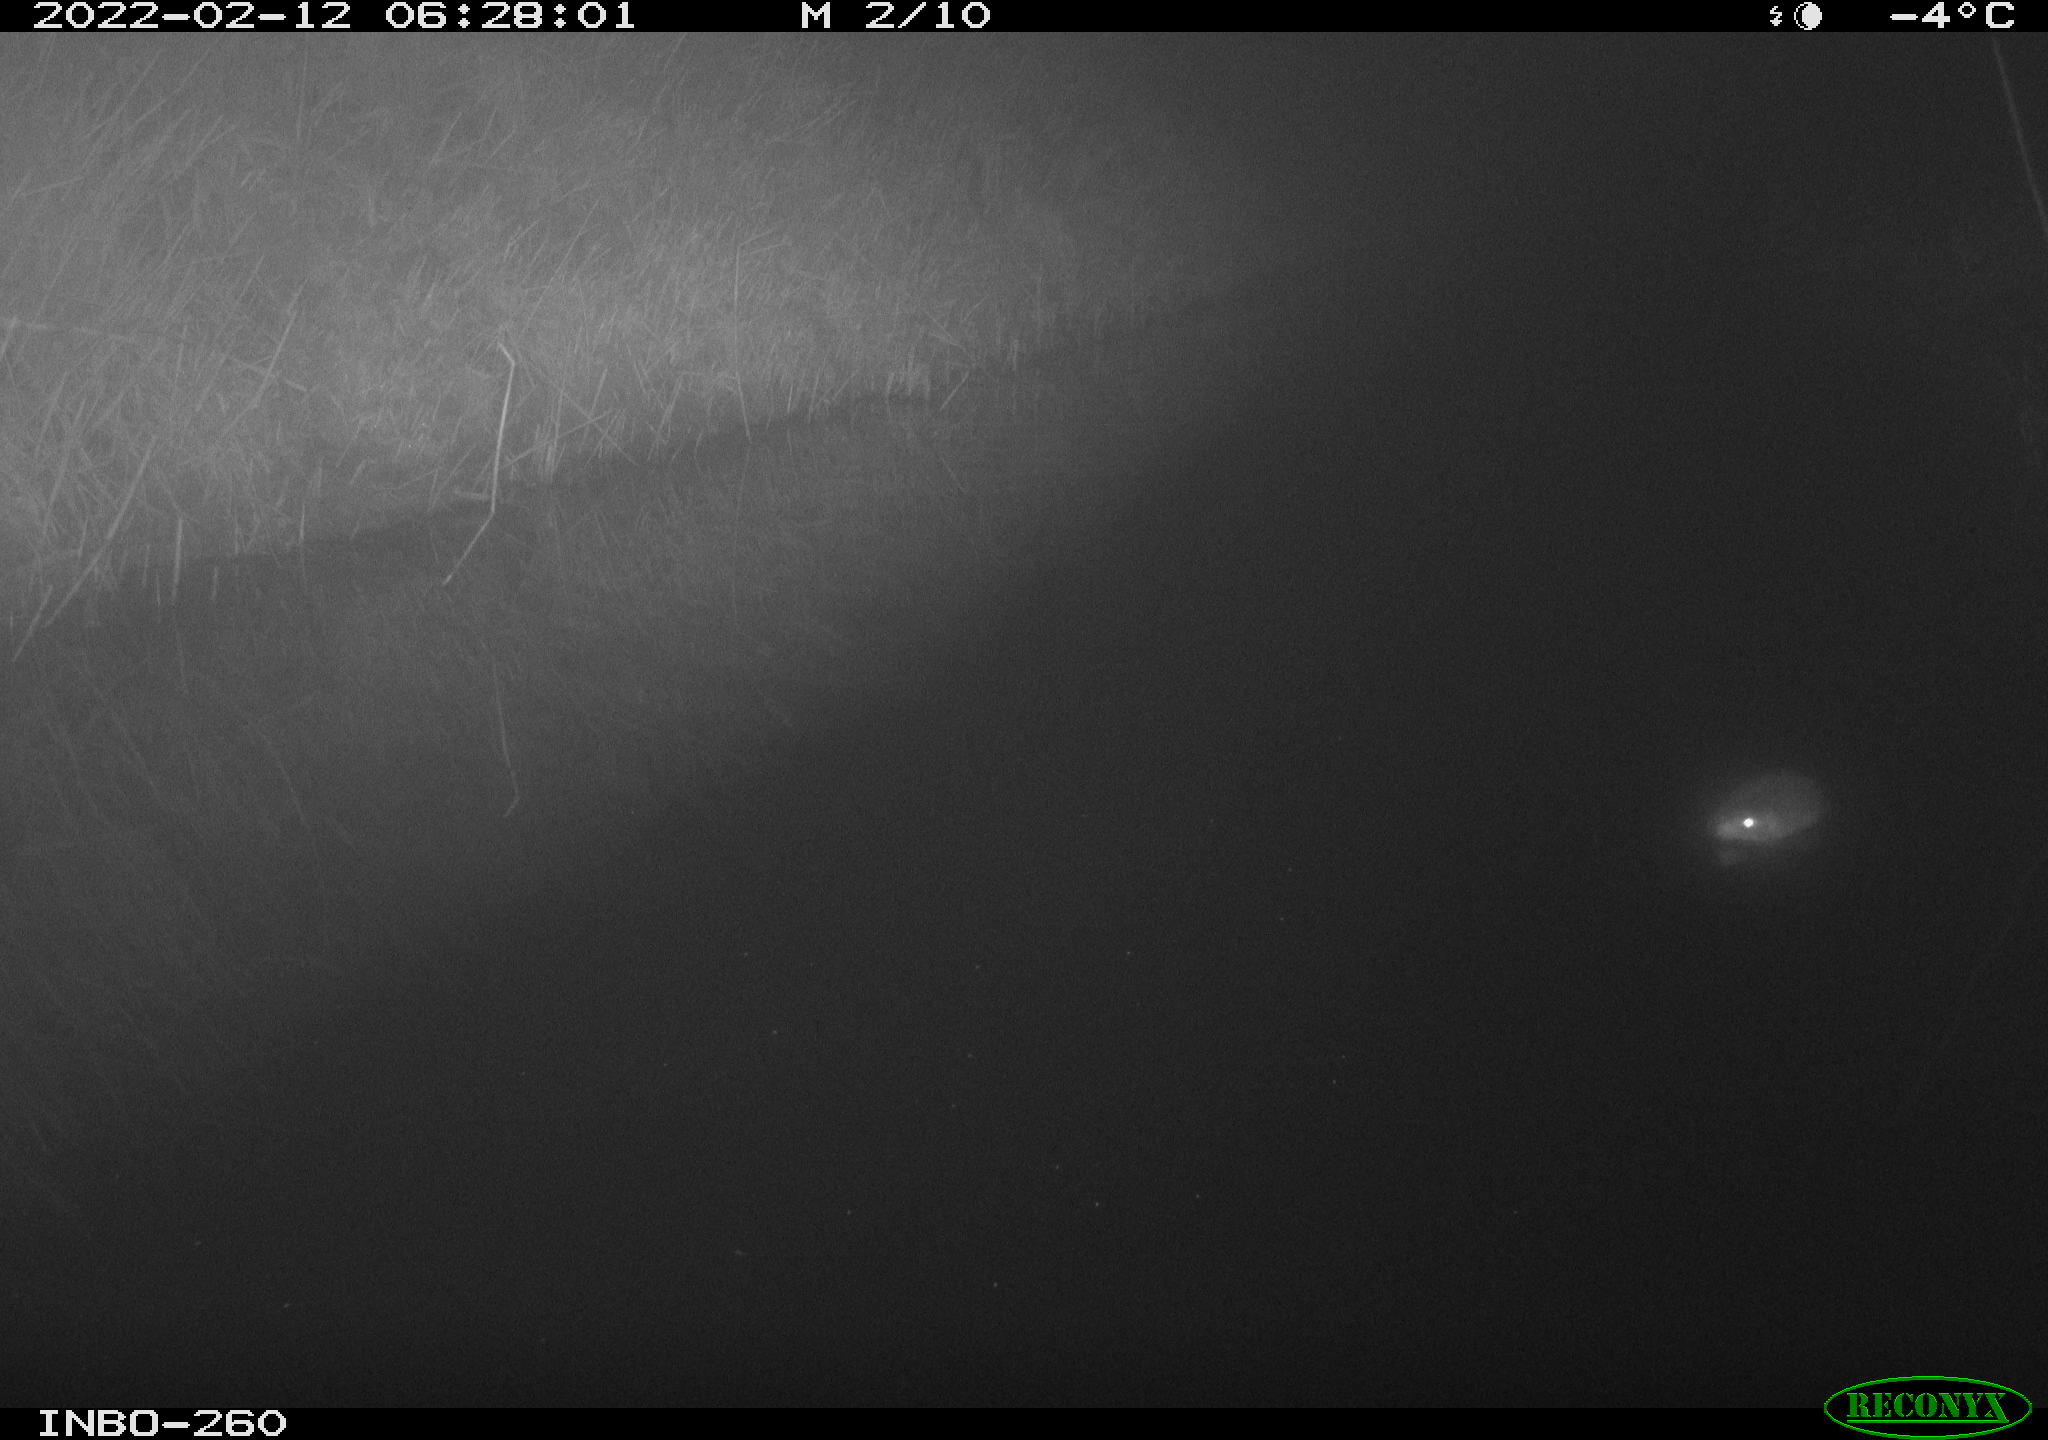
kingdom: Animalia
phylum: Chordata
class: Mammalia
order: Rodentia
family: Cricetidae
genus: Ondatra
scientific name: Ondatra zibethicus
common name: Muskrat
